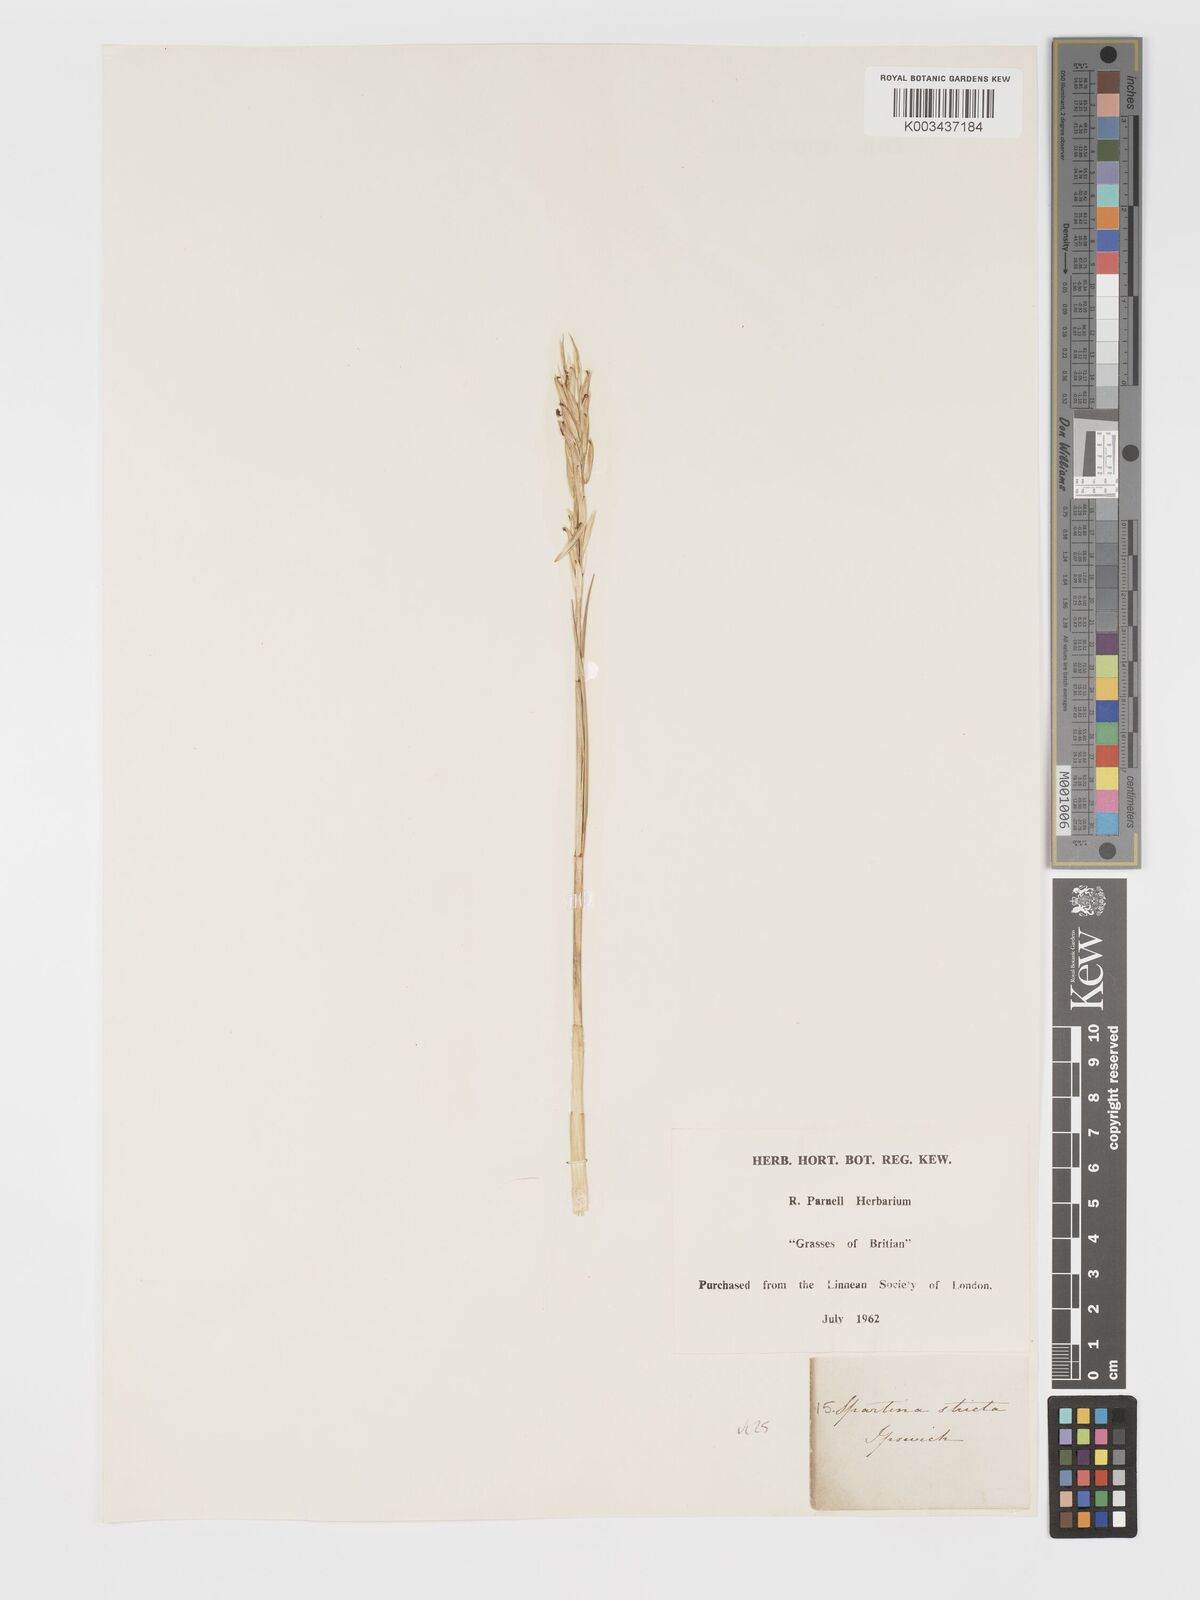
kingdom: Plantae
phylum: Tracheophyta
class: Liliopsida
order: Poales
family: Poaceae
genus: Sporobolus
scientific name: Sporobolus maritimus
